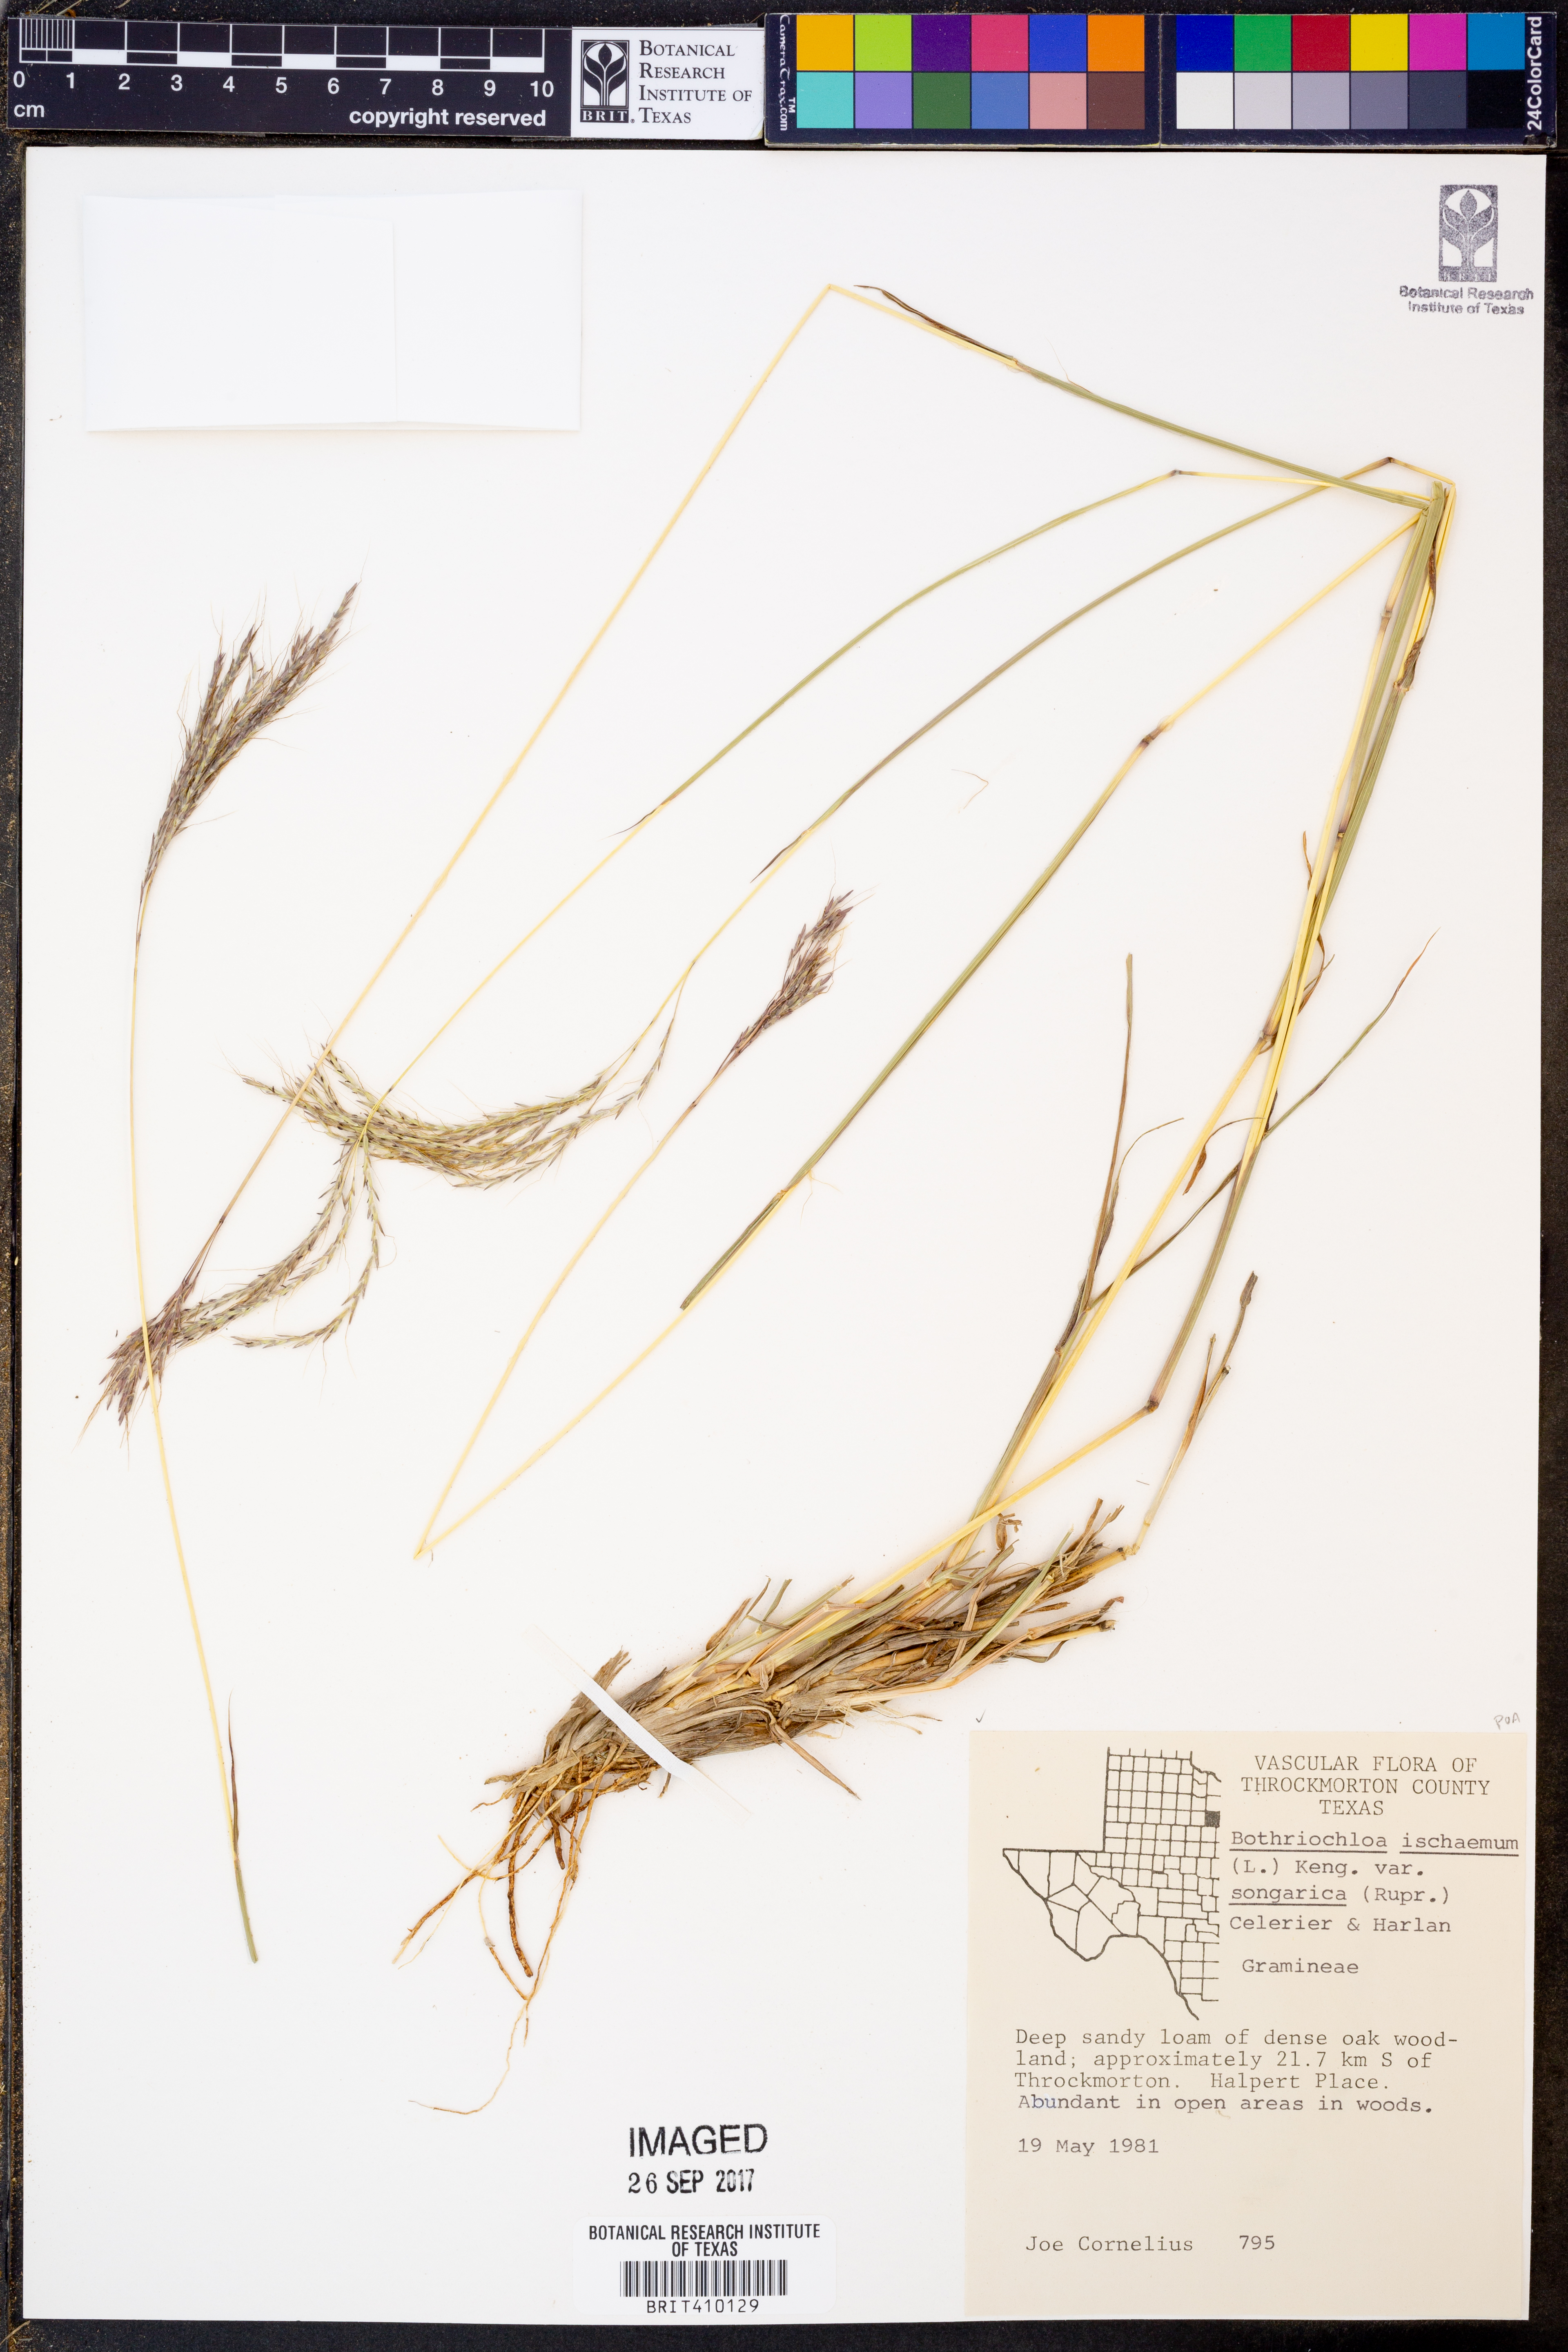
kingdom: Plantae
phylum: Tracheophyta
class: Liliopsida
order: Poales
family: Poaceae
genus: Bothriochloa
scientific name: Bothriochloa ischaemum
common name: Yellow bluestem
